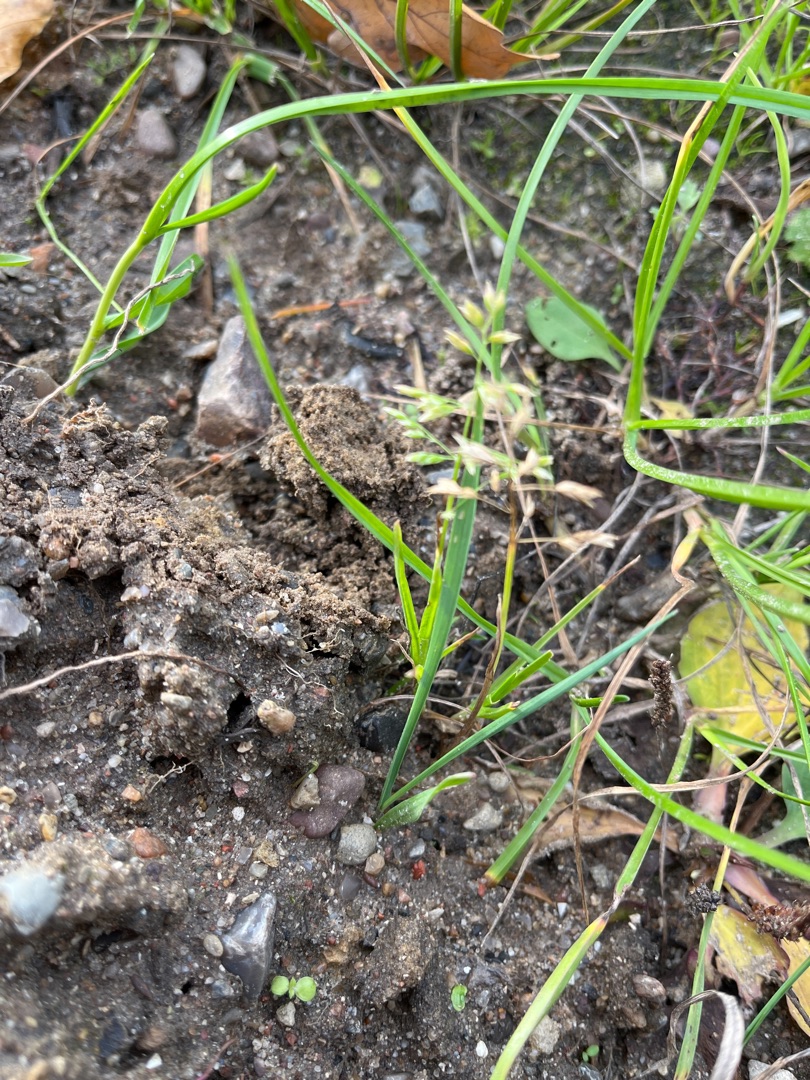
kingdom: Plantae
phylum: Tracheophyta
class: Liliopsida
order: Poales
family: Poaceae
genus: Poa
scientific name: Poa annua
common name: Enårig rapgræs
